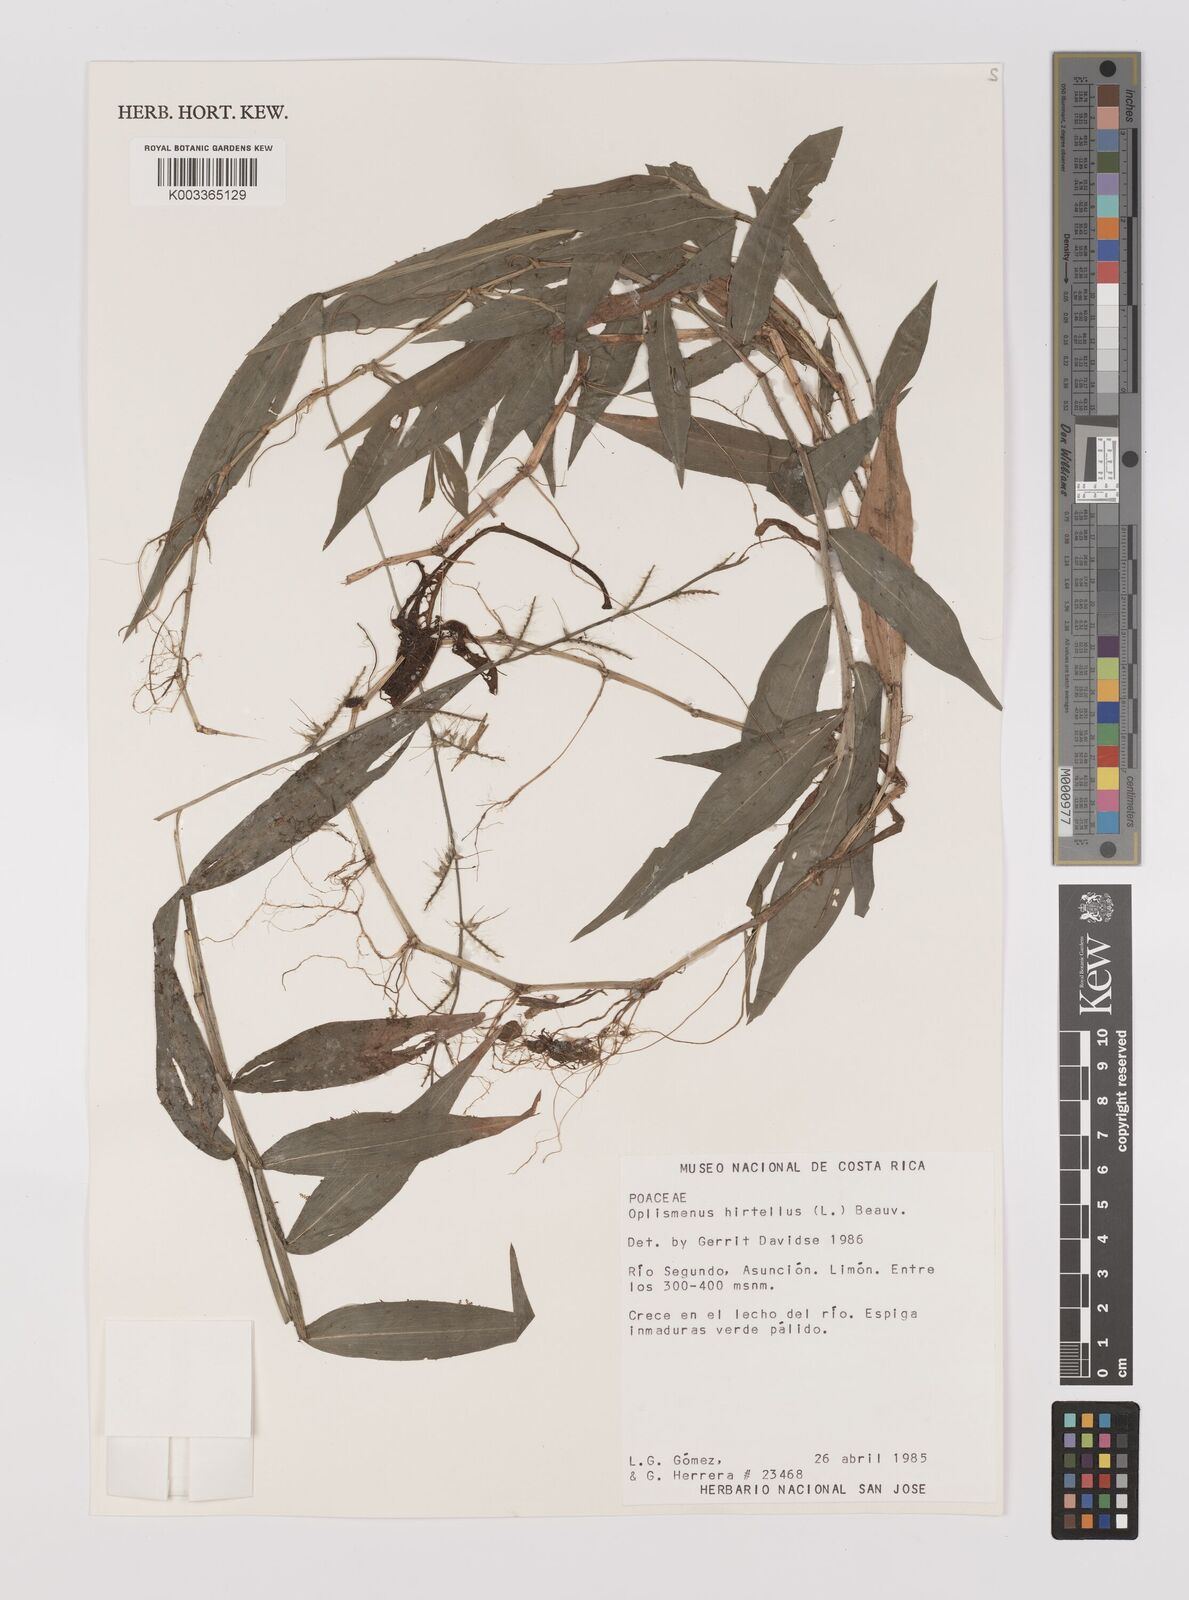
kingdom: Plantae
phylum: Tracheophyta
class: Liliopsida
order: Poales
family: Poaceae
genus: Oplismenus
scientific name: Oplismenus hirtellus
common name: Basketgrass
